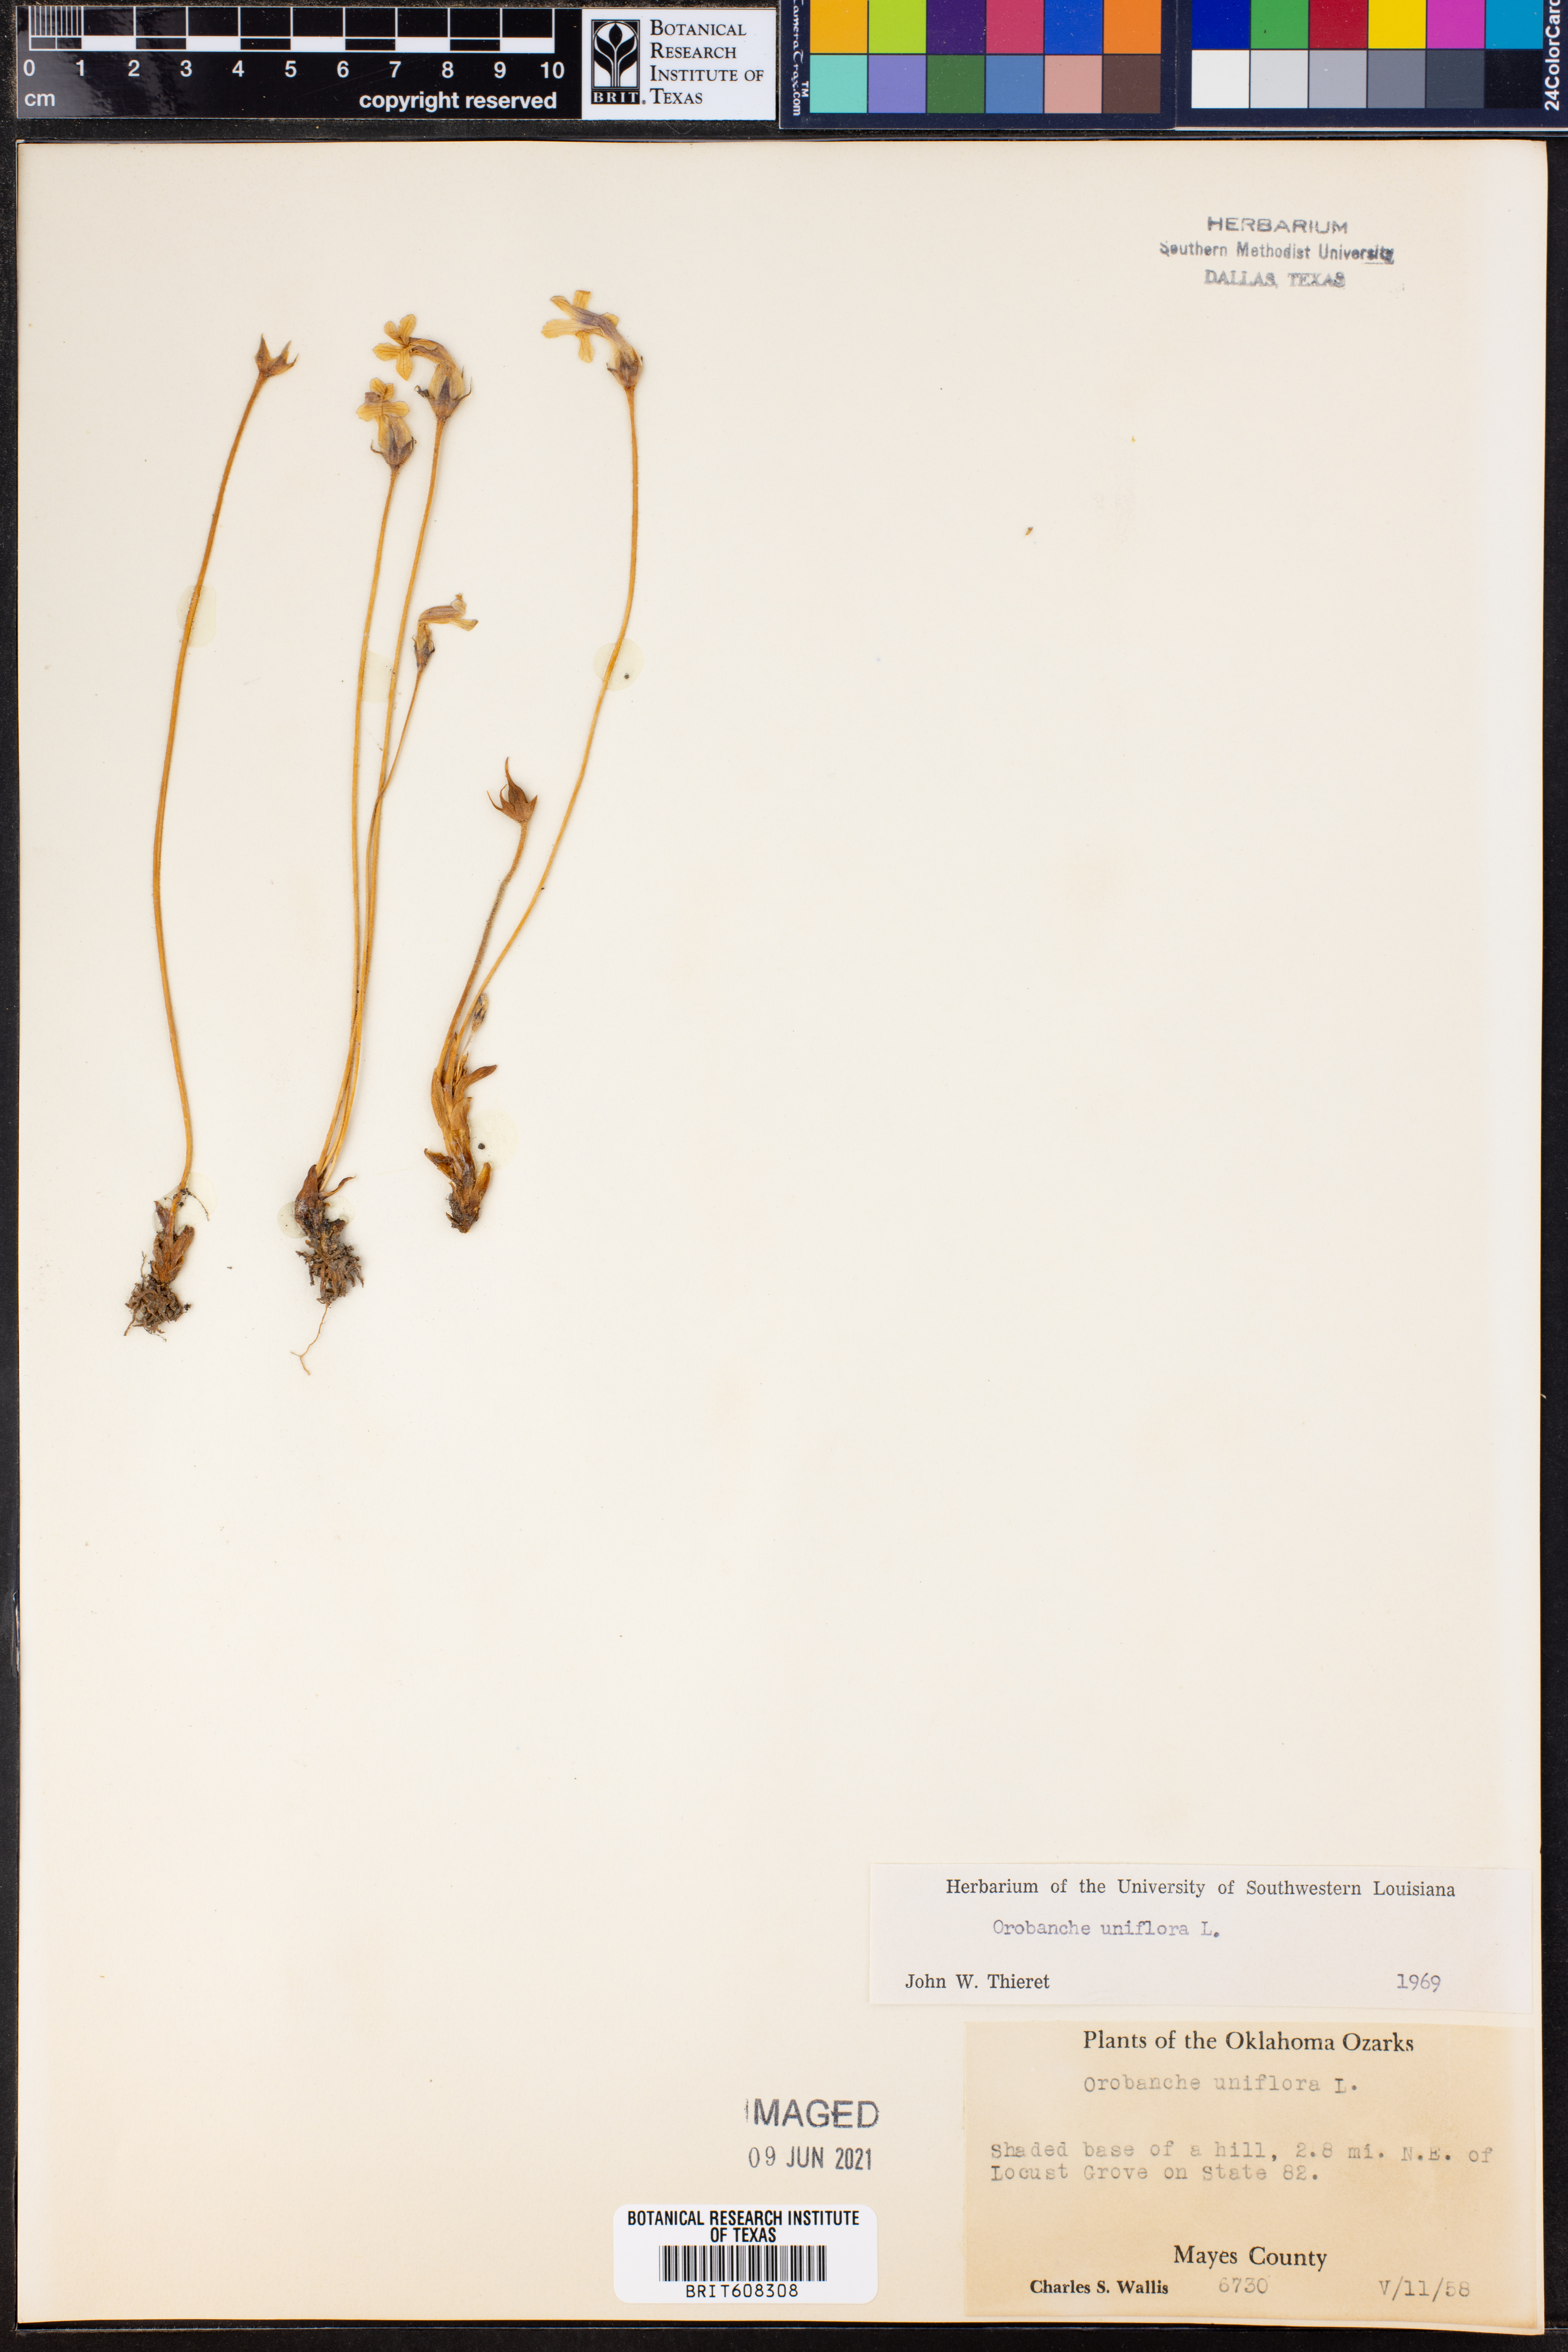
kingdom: Plantae
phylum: Tracheophyta
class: Magnoliopsida
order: Lamiales
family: Orobanchaceae
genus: Aphyllon
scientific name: Aphyllon uniflorum
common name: One-flowered broomrape
